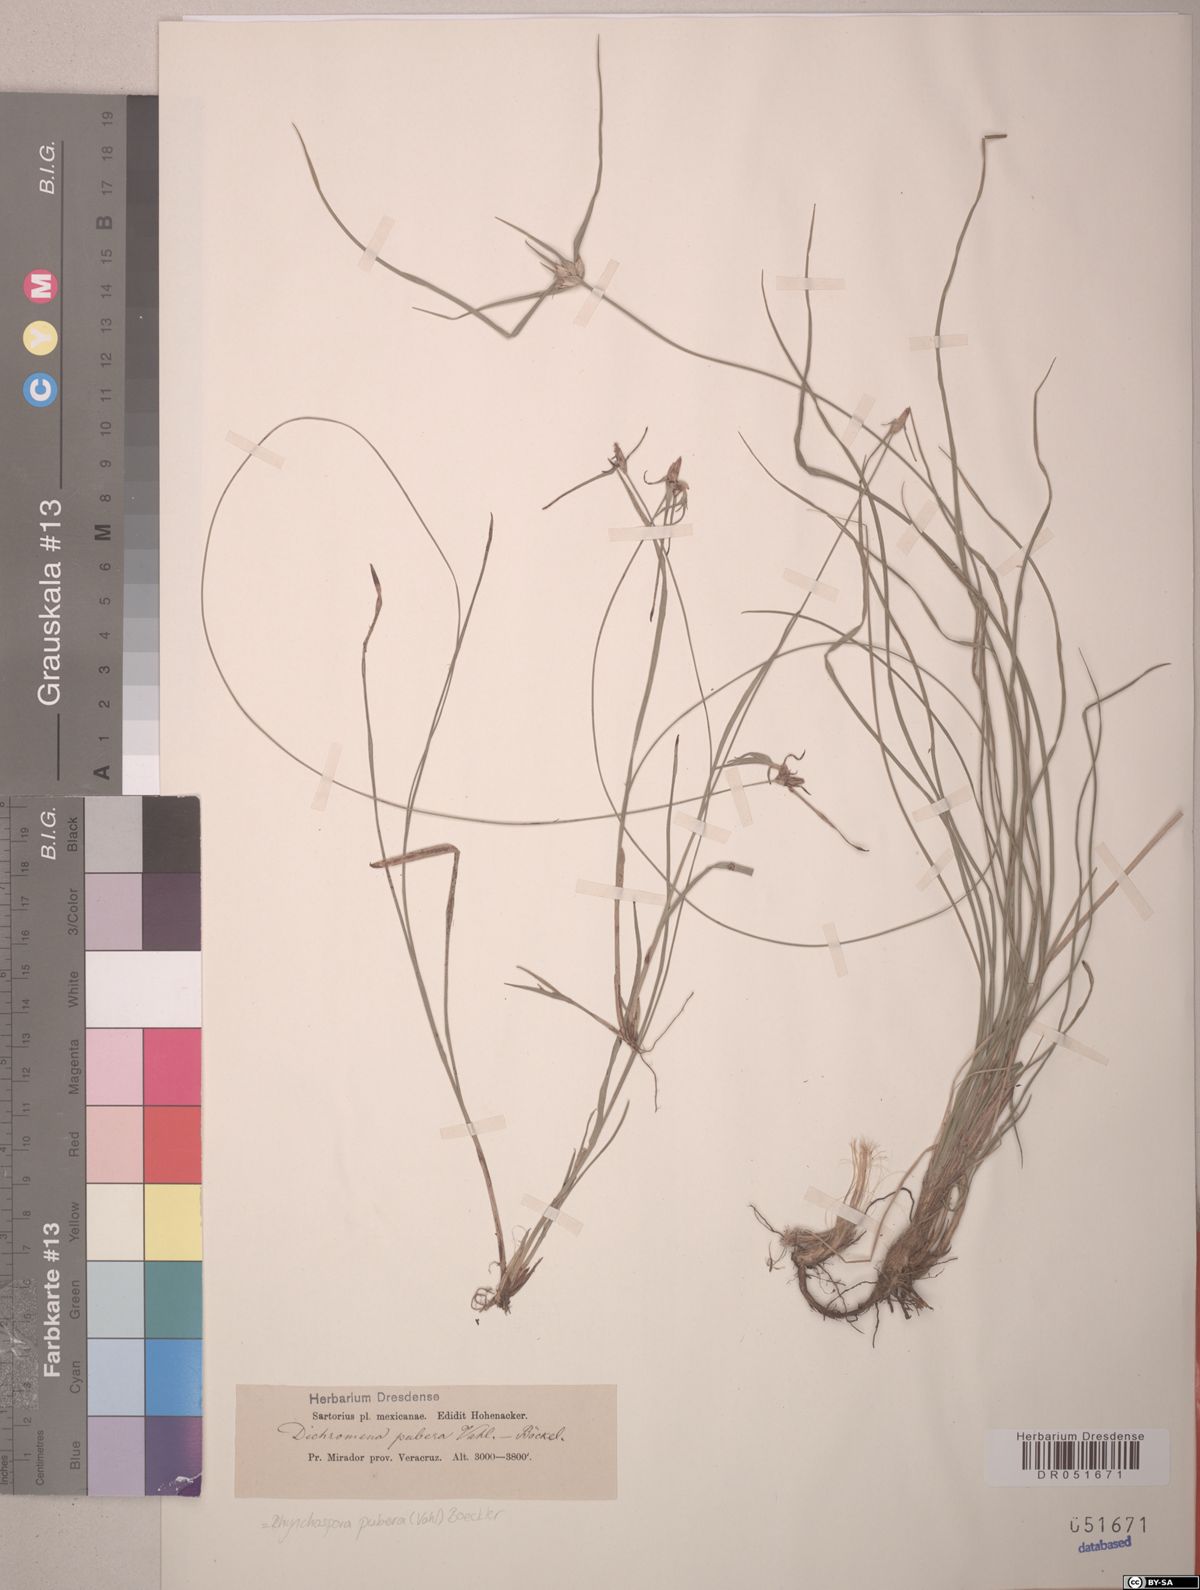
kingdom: Plantae
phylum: Tracheophyta
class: Liliopsida
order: Poales
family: Cyperaceae
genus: Rhynchospora
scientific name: Rhynchospora pubera
